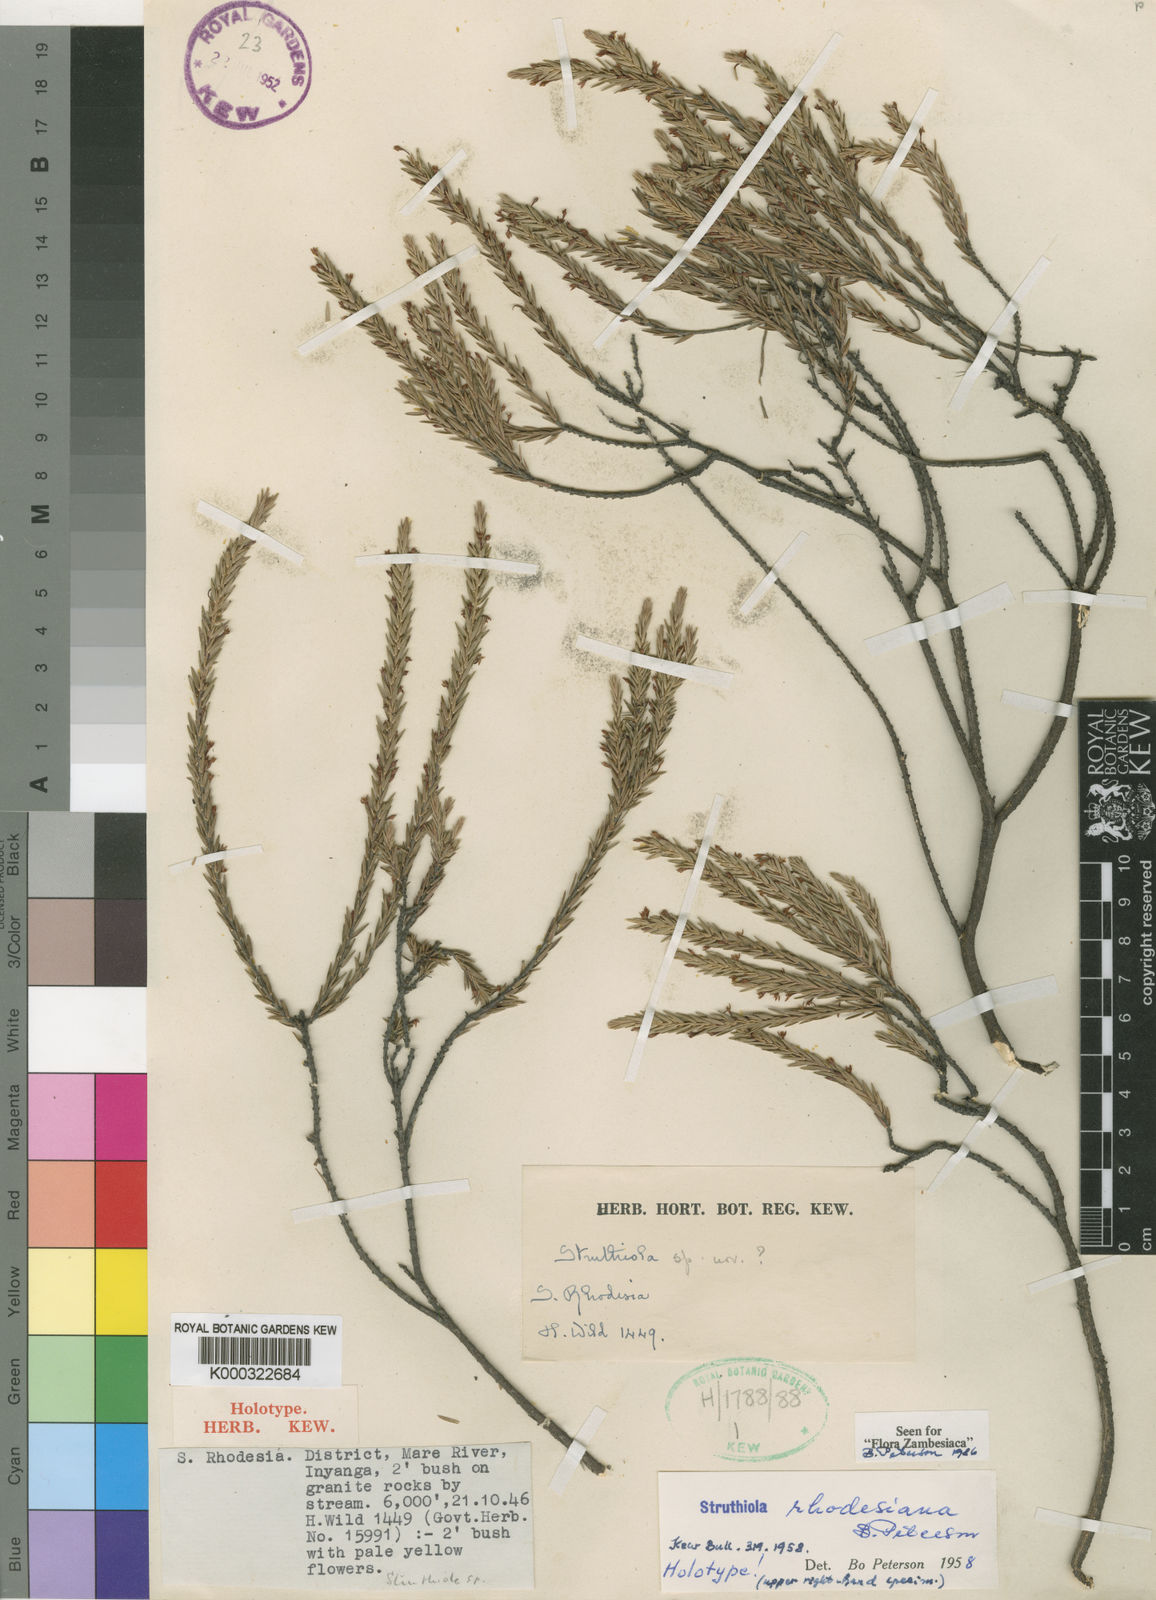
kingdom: Plantae
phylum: Tracheophyta
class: Magnoliopsida
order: Malvales
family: Thymelaeaceae
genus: Struthiola
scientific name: Struthiola rhodesiana
